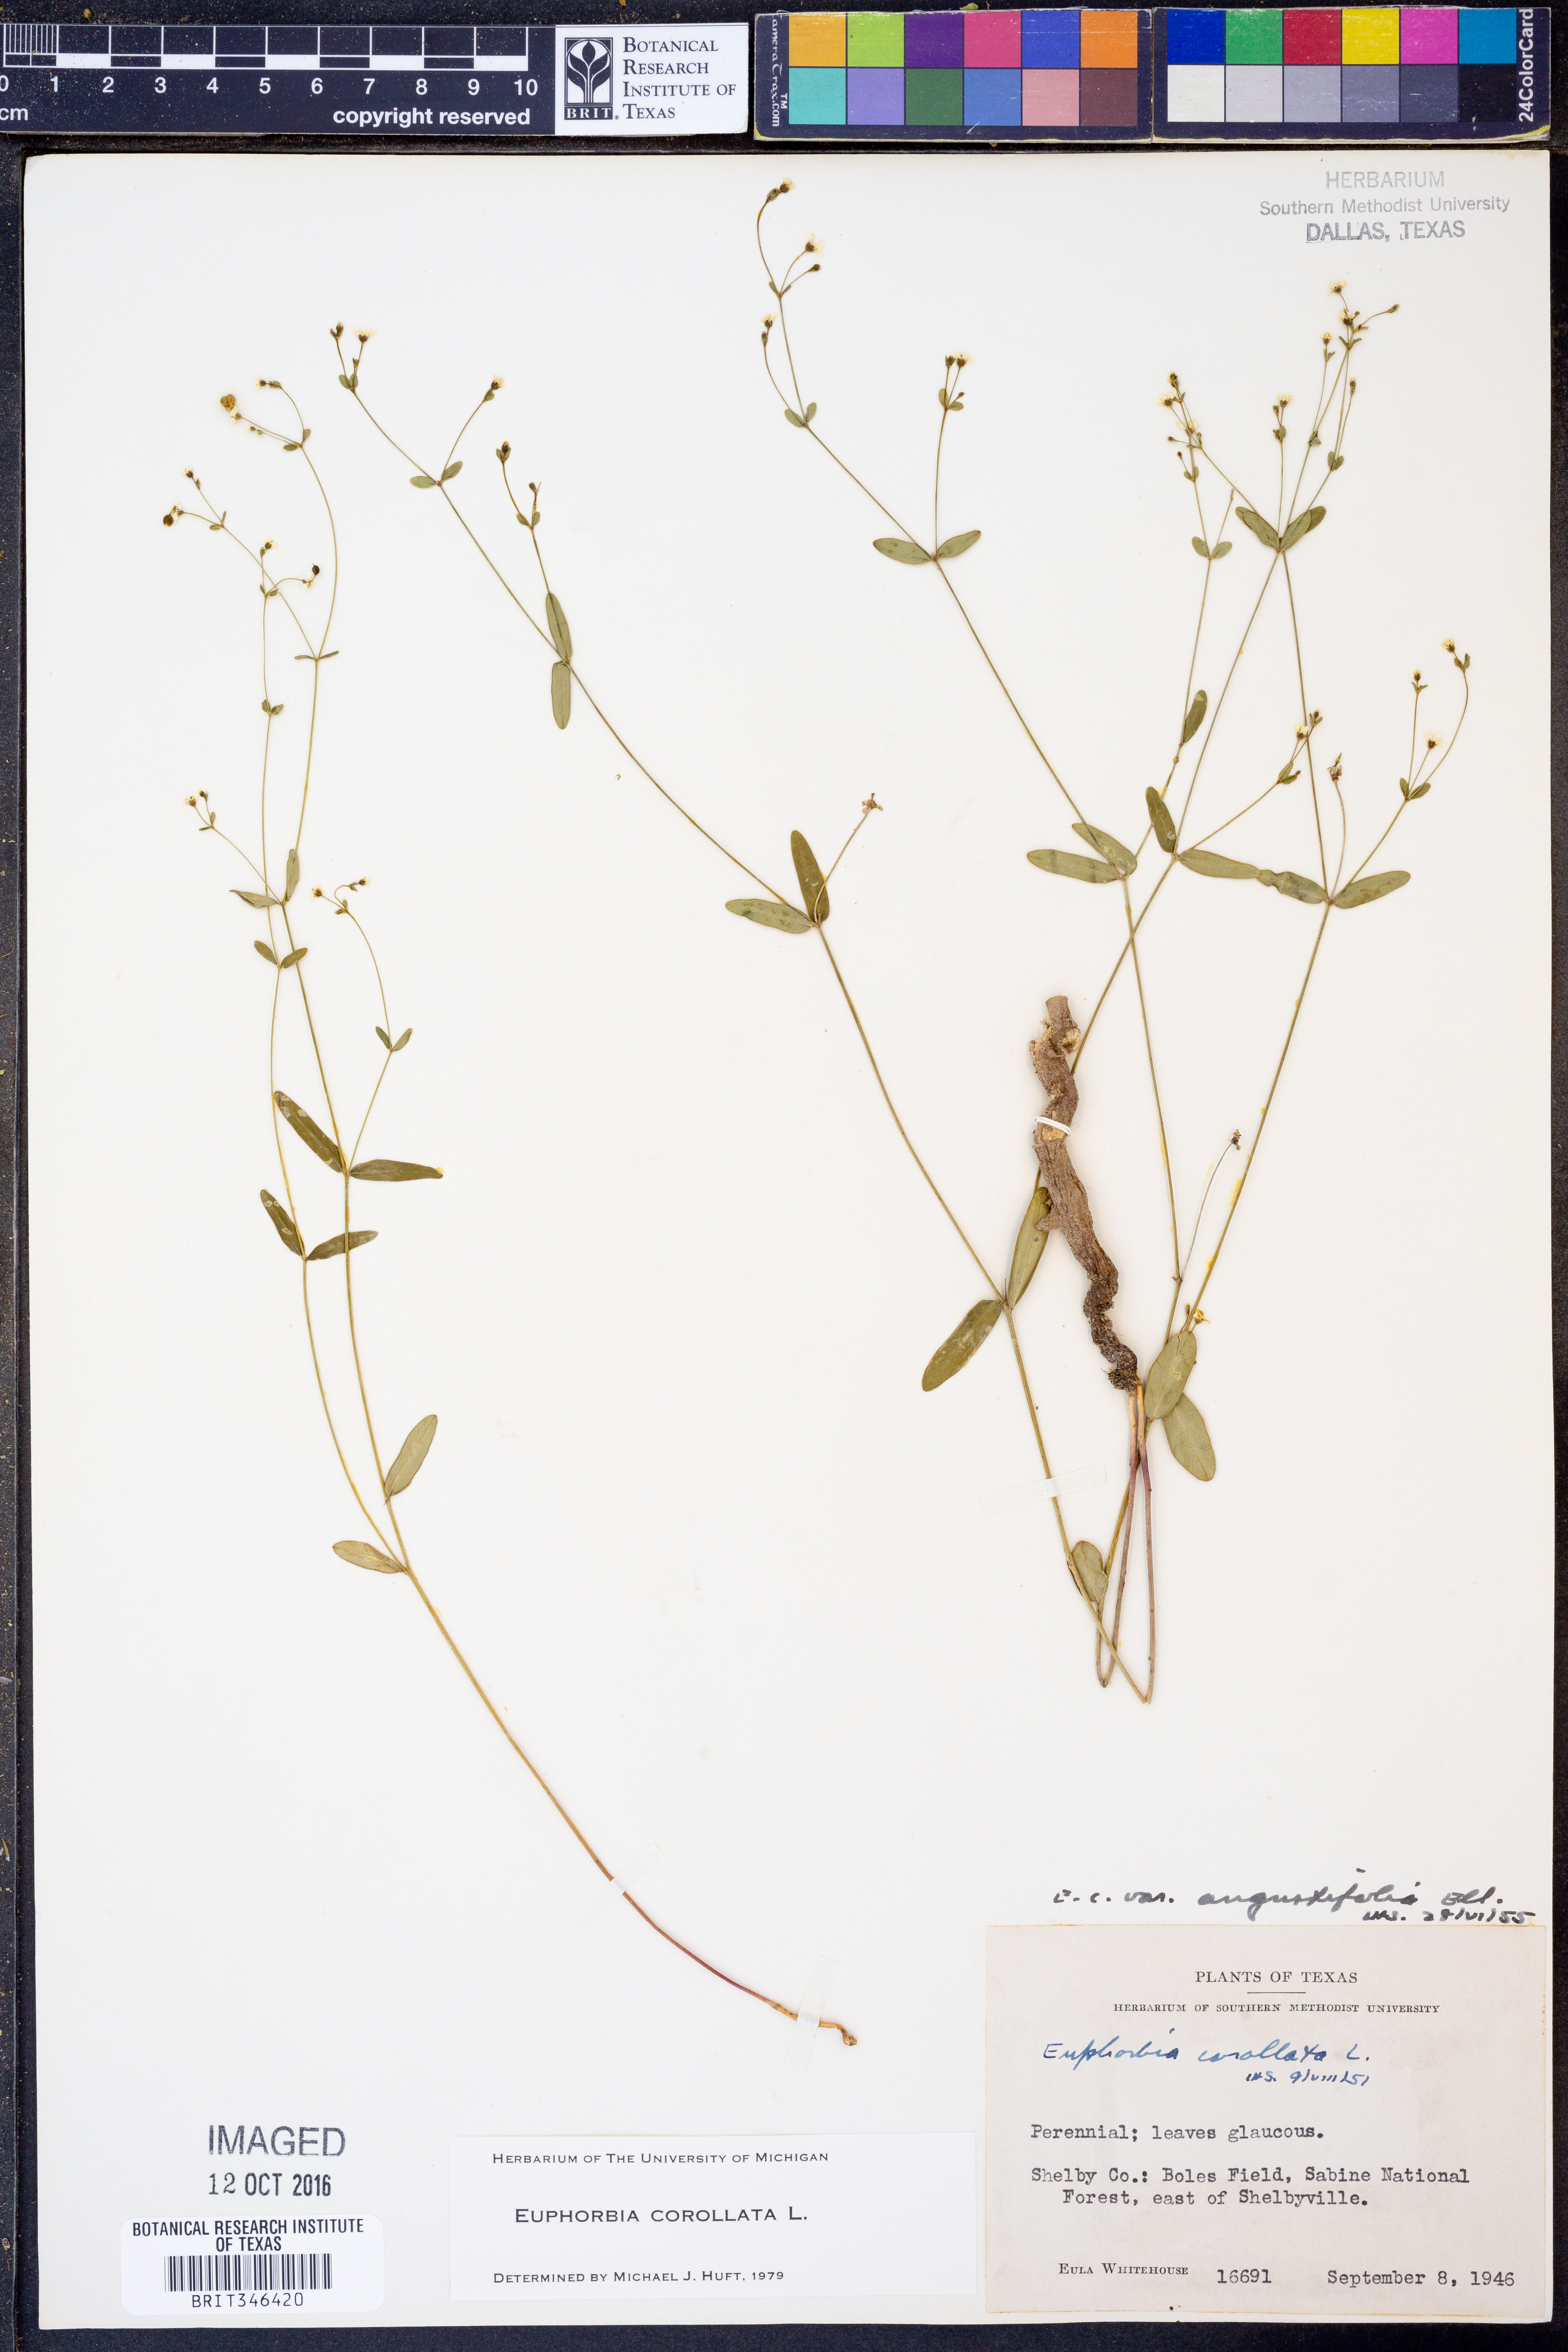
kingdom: Plantae
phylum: Tracheophyta
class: Magnoliopsida
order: Malpighiales
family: Euphorbiaceae
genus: Euphorbia
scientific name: Euphorbia corollata
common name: Flowering spurge
